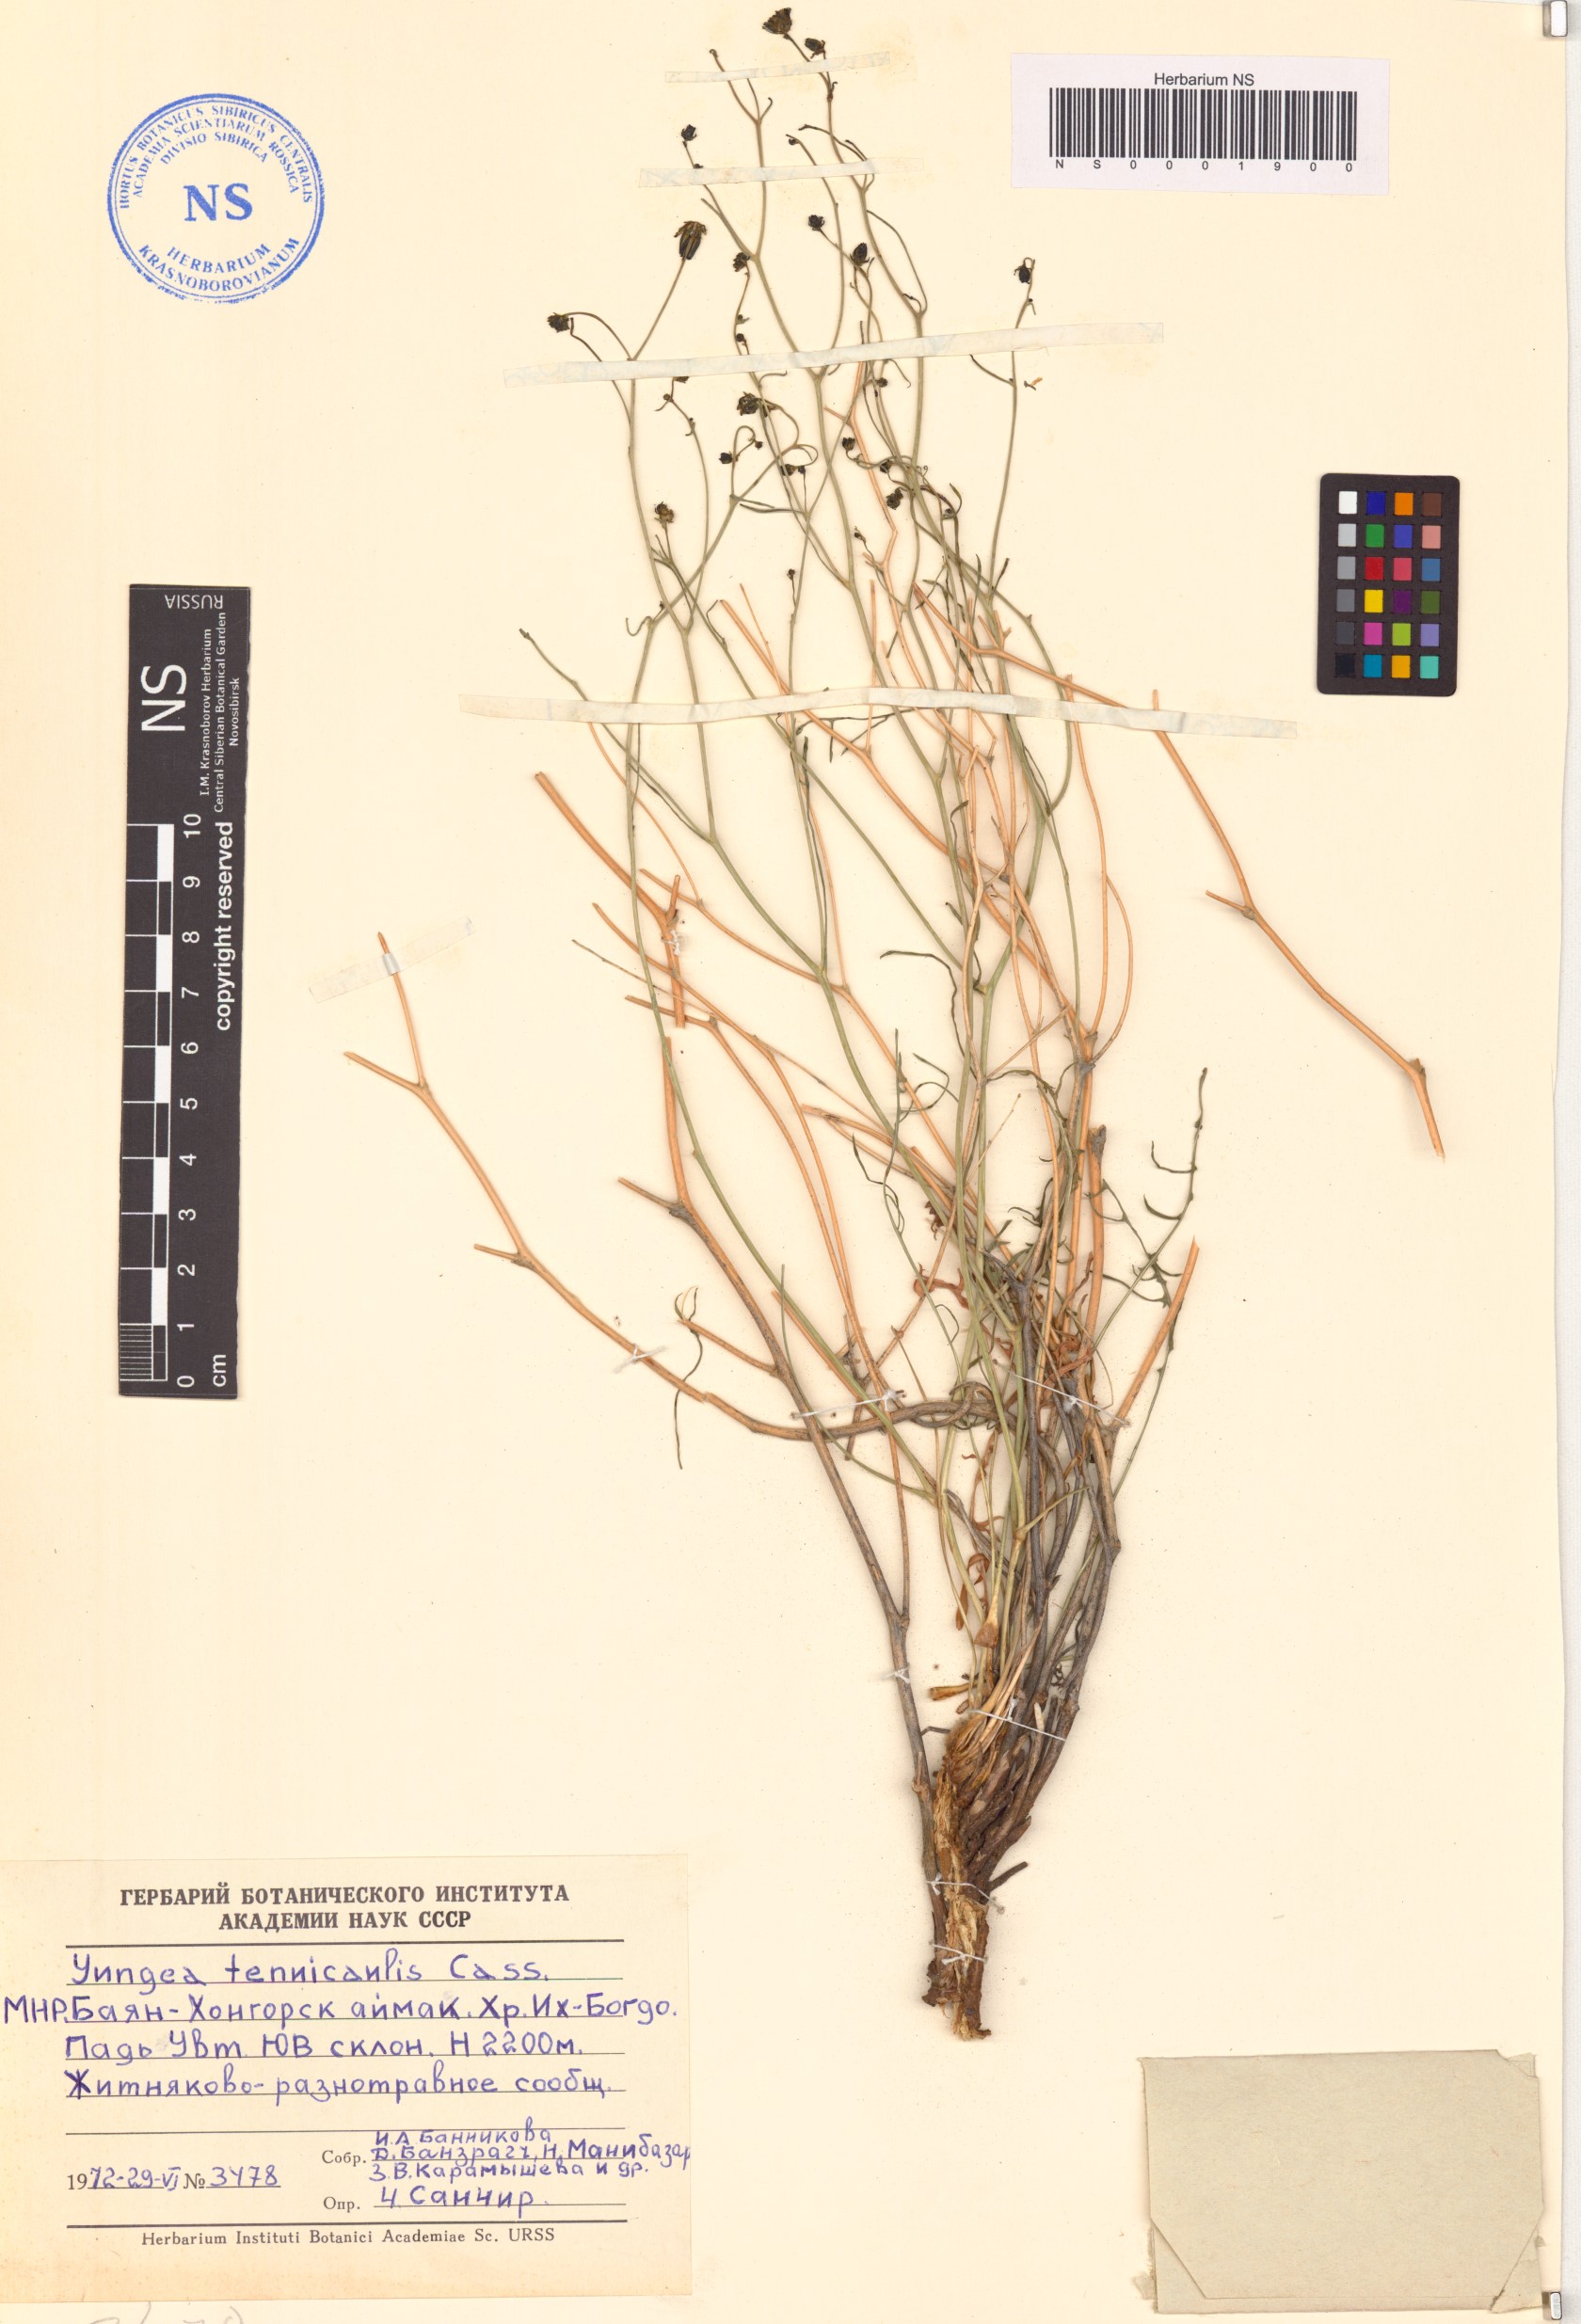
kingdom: Plantae
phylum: Tracheophyta
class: Magnoliopsida
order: Asterales
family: Asteraceae
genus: Crepidiastrum
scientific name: Crepidiastrum akagii
